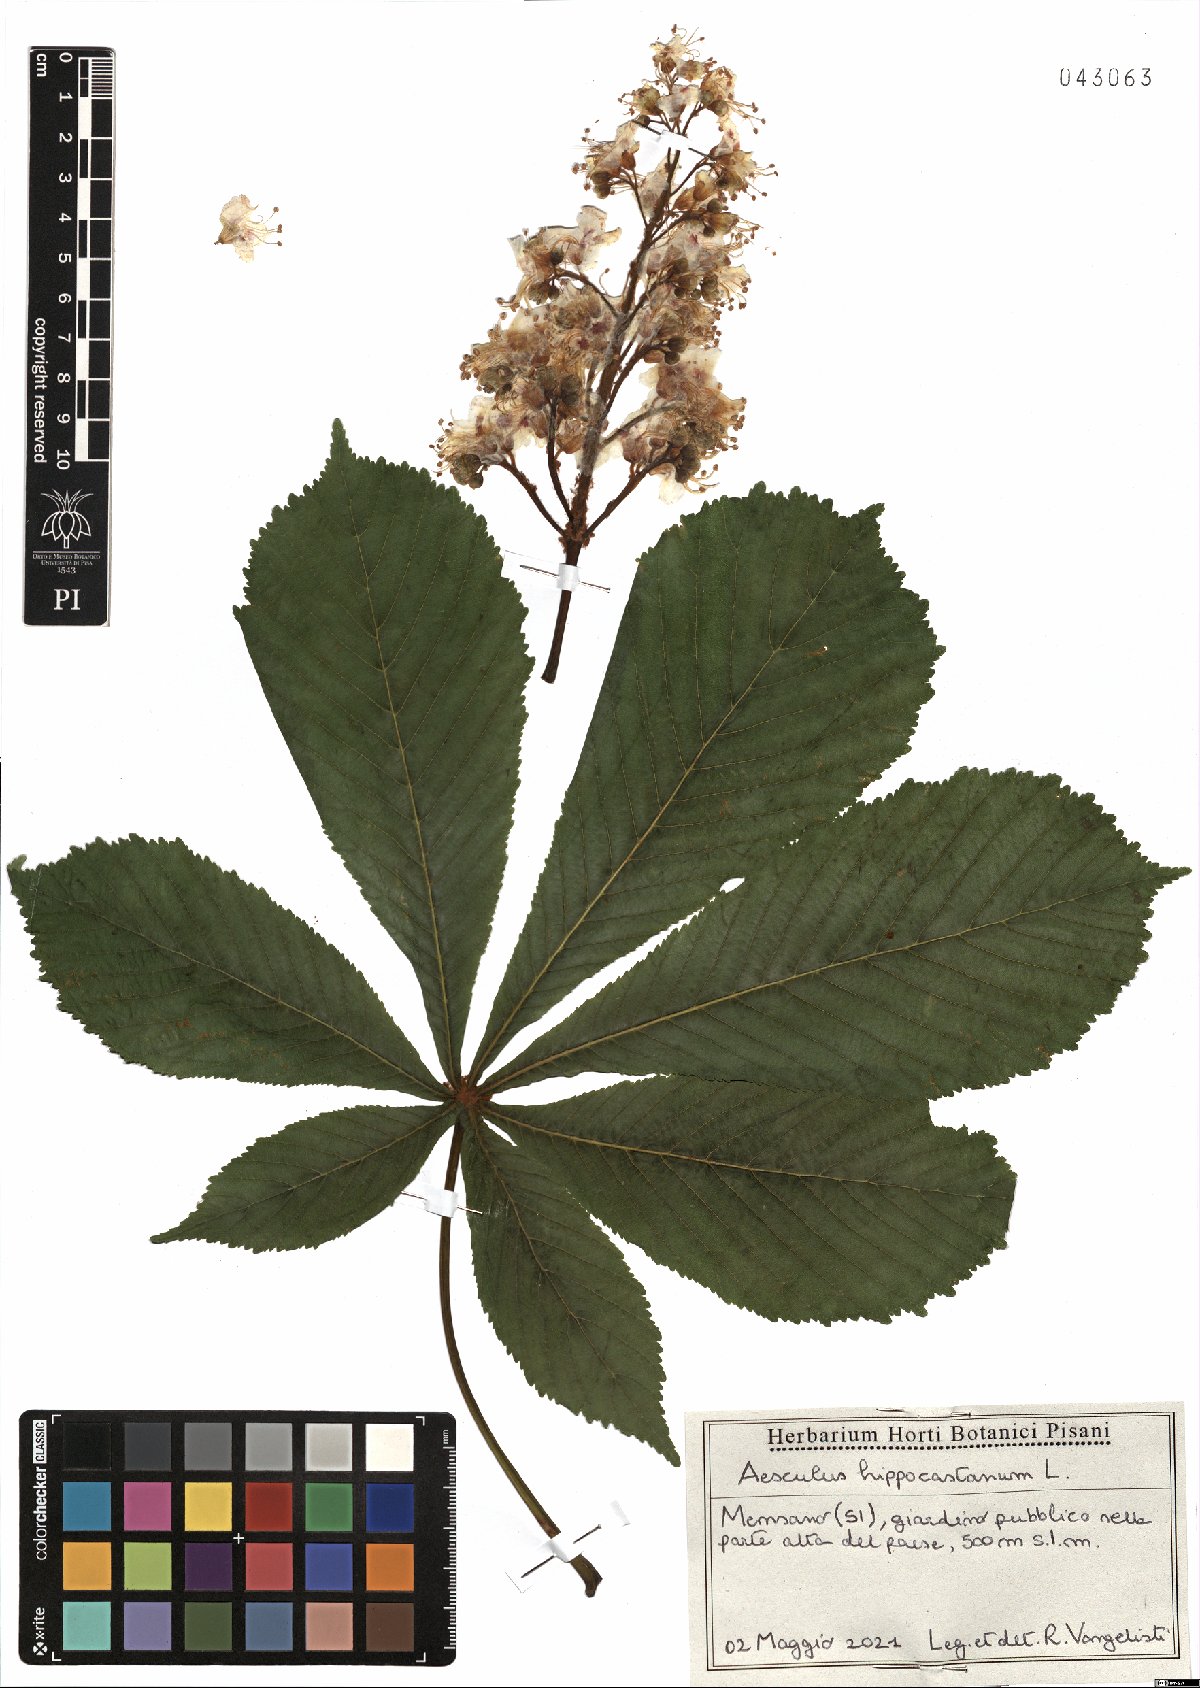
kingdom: Plantae
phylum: Tracheophyta
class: Magnoliopsida
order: Sapindales
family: Sapindaceae
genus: Aesculus
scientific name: Aesculus hippocastanum
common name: Horse-chestnut
